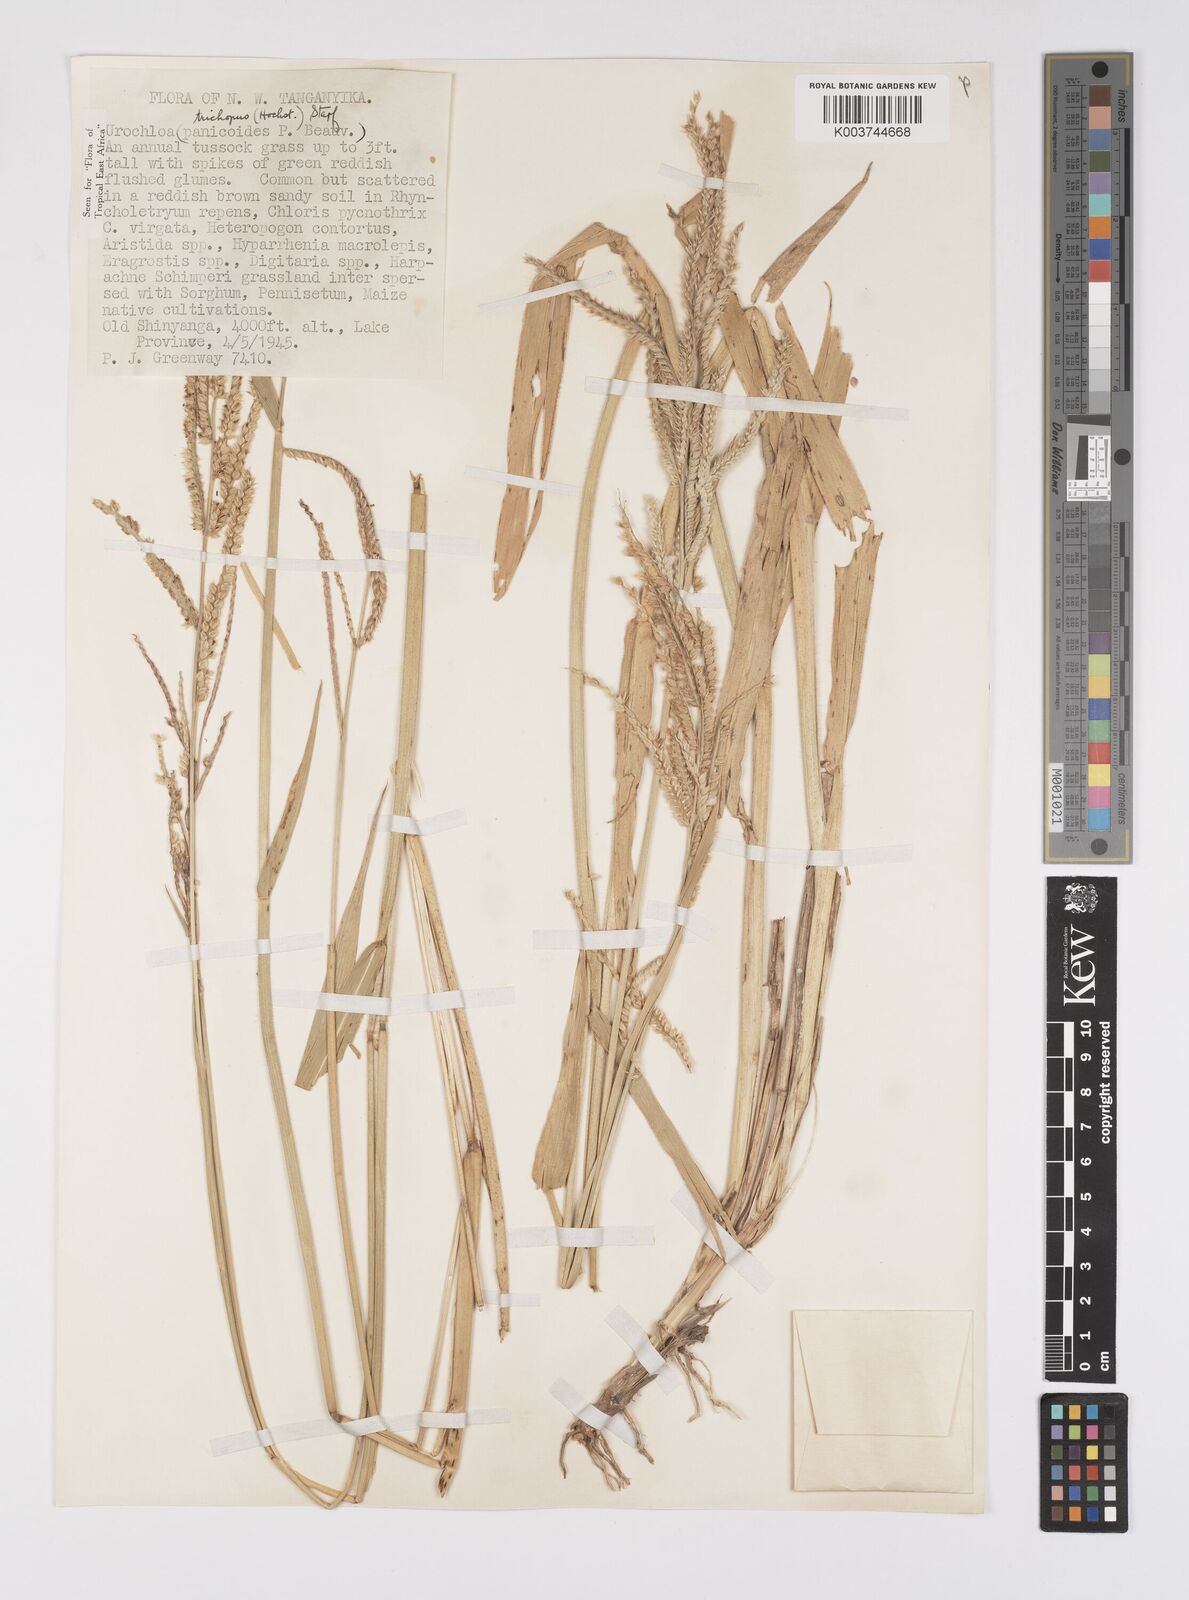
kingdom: Plantae
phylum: Tracheophyta
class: Liliopsida
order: Poales
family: Poaceae
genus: Urochloa
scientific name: Urochloa trichopus
